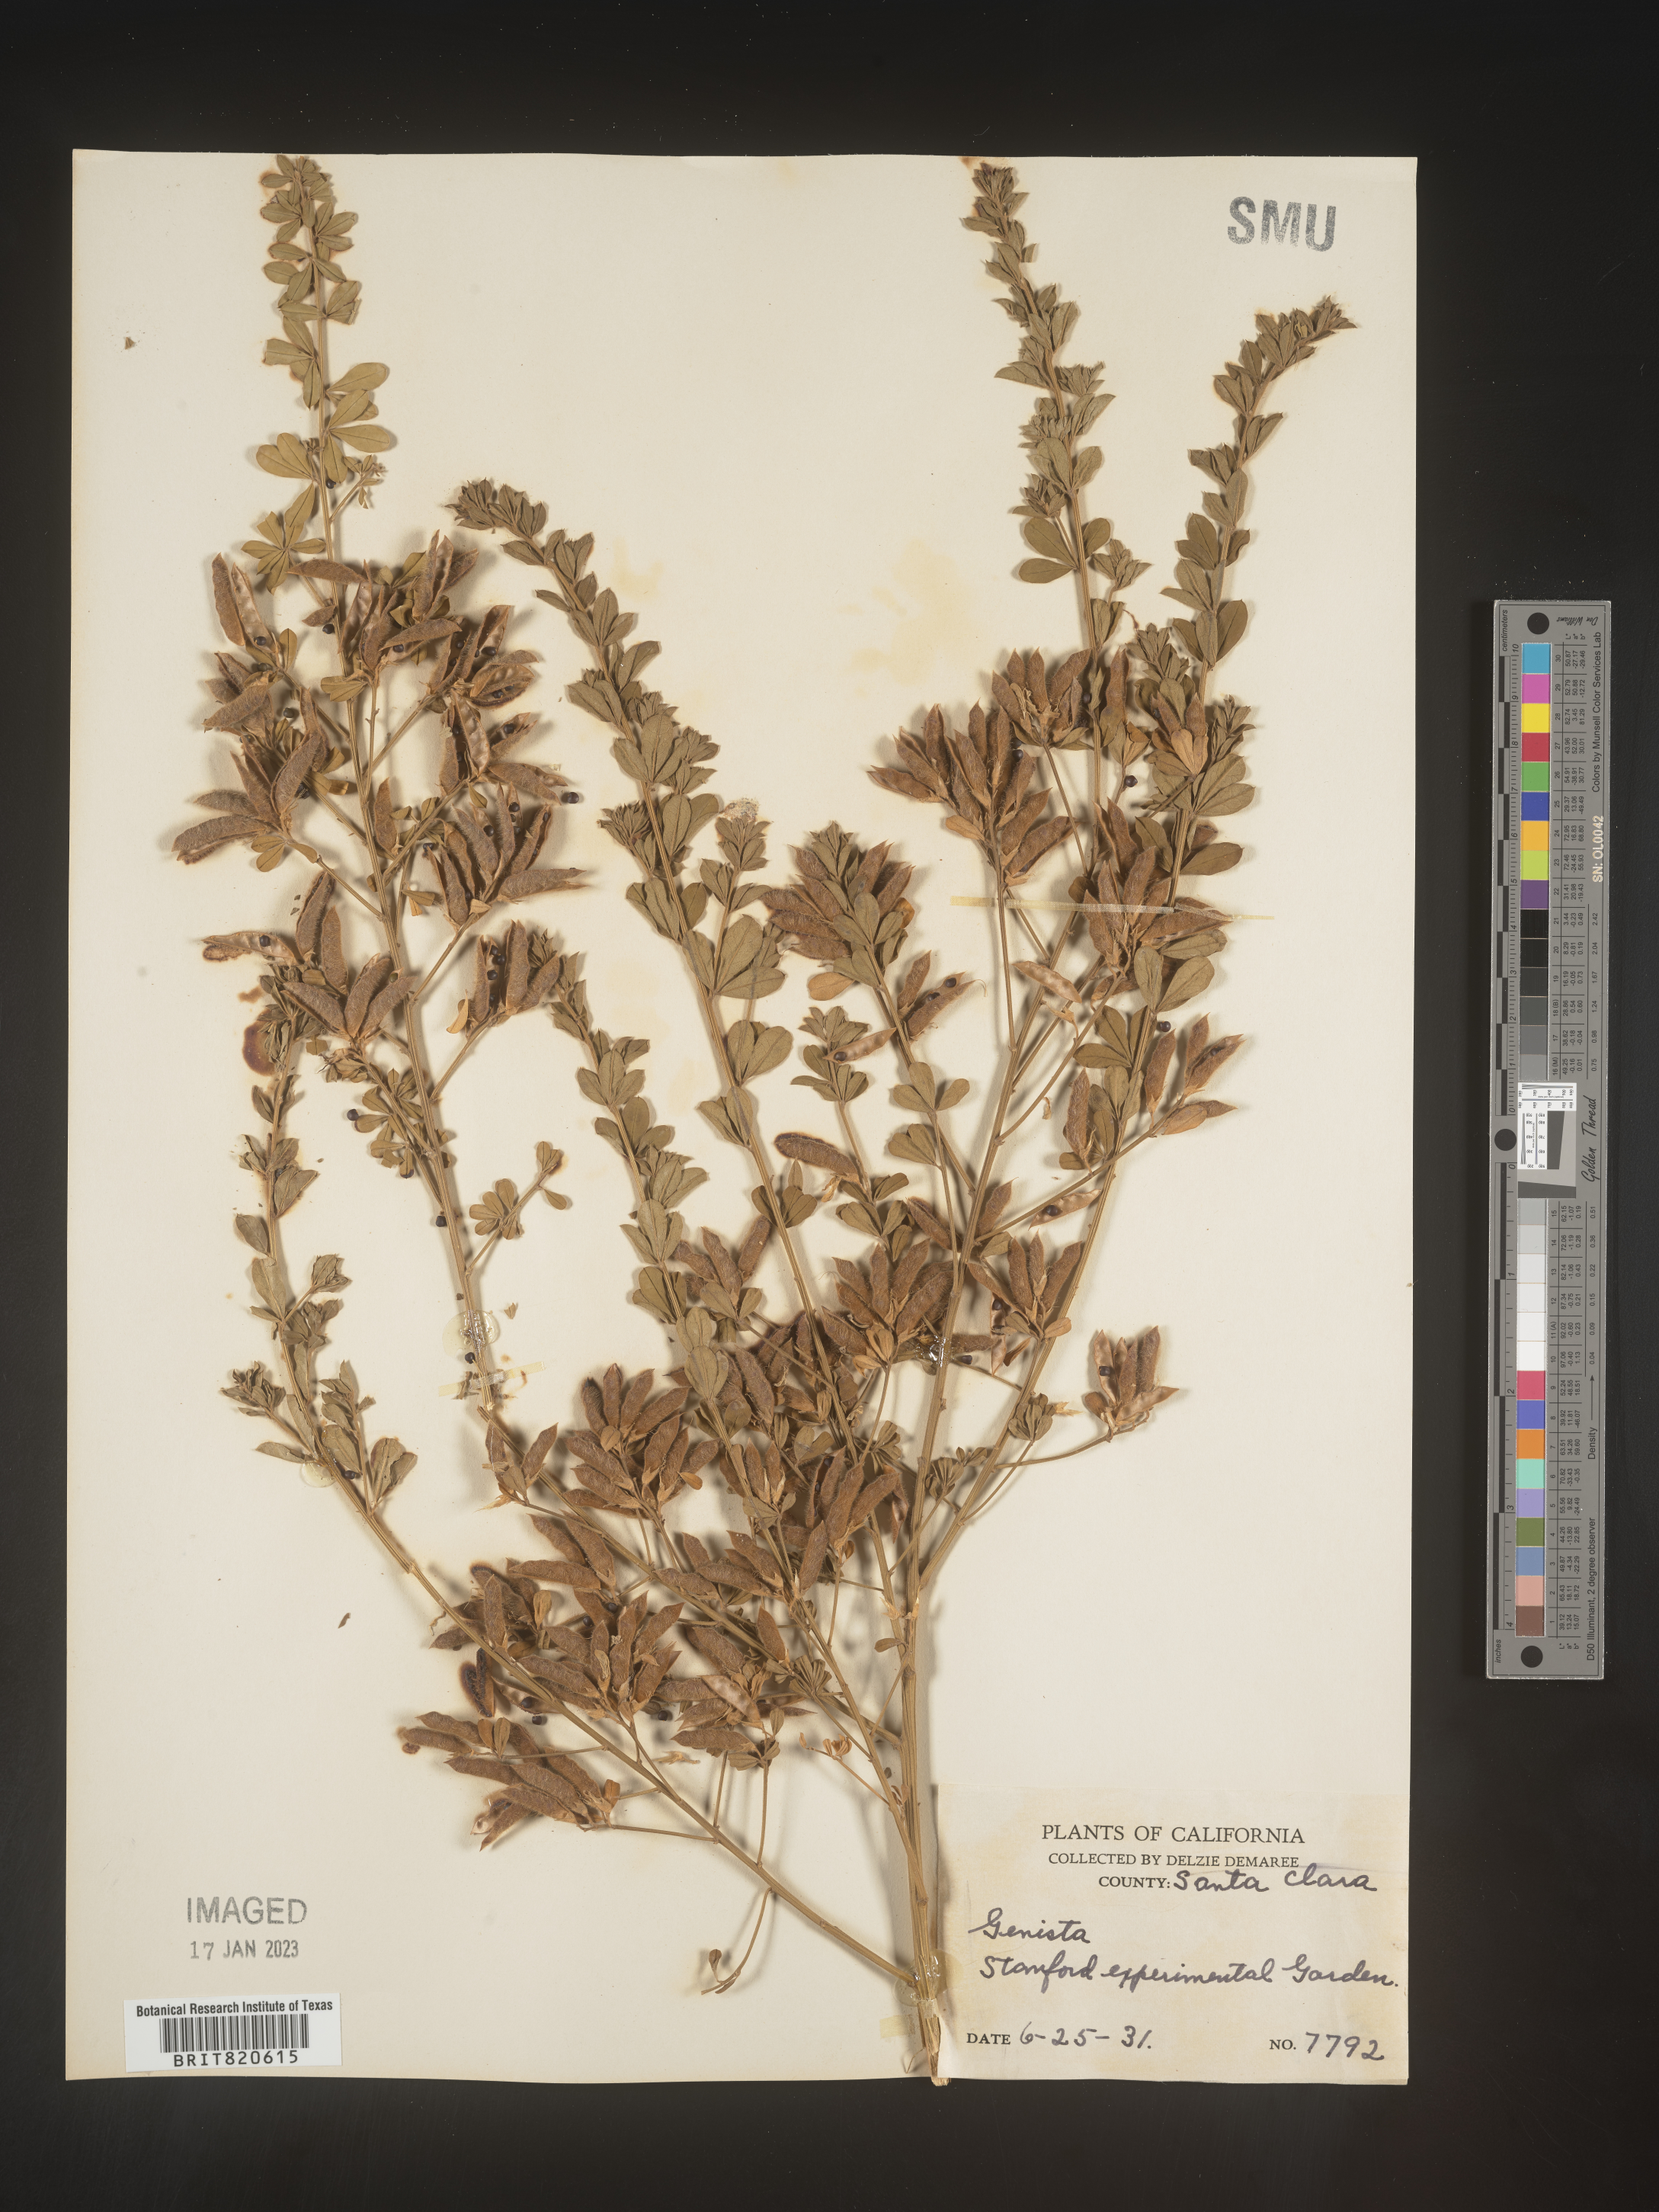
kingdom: Plantae
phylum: Tracheophyta
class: Magnoliopsida
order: Fabales
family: Fabaceae
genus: Genista
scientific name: Genista
